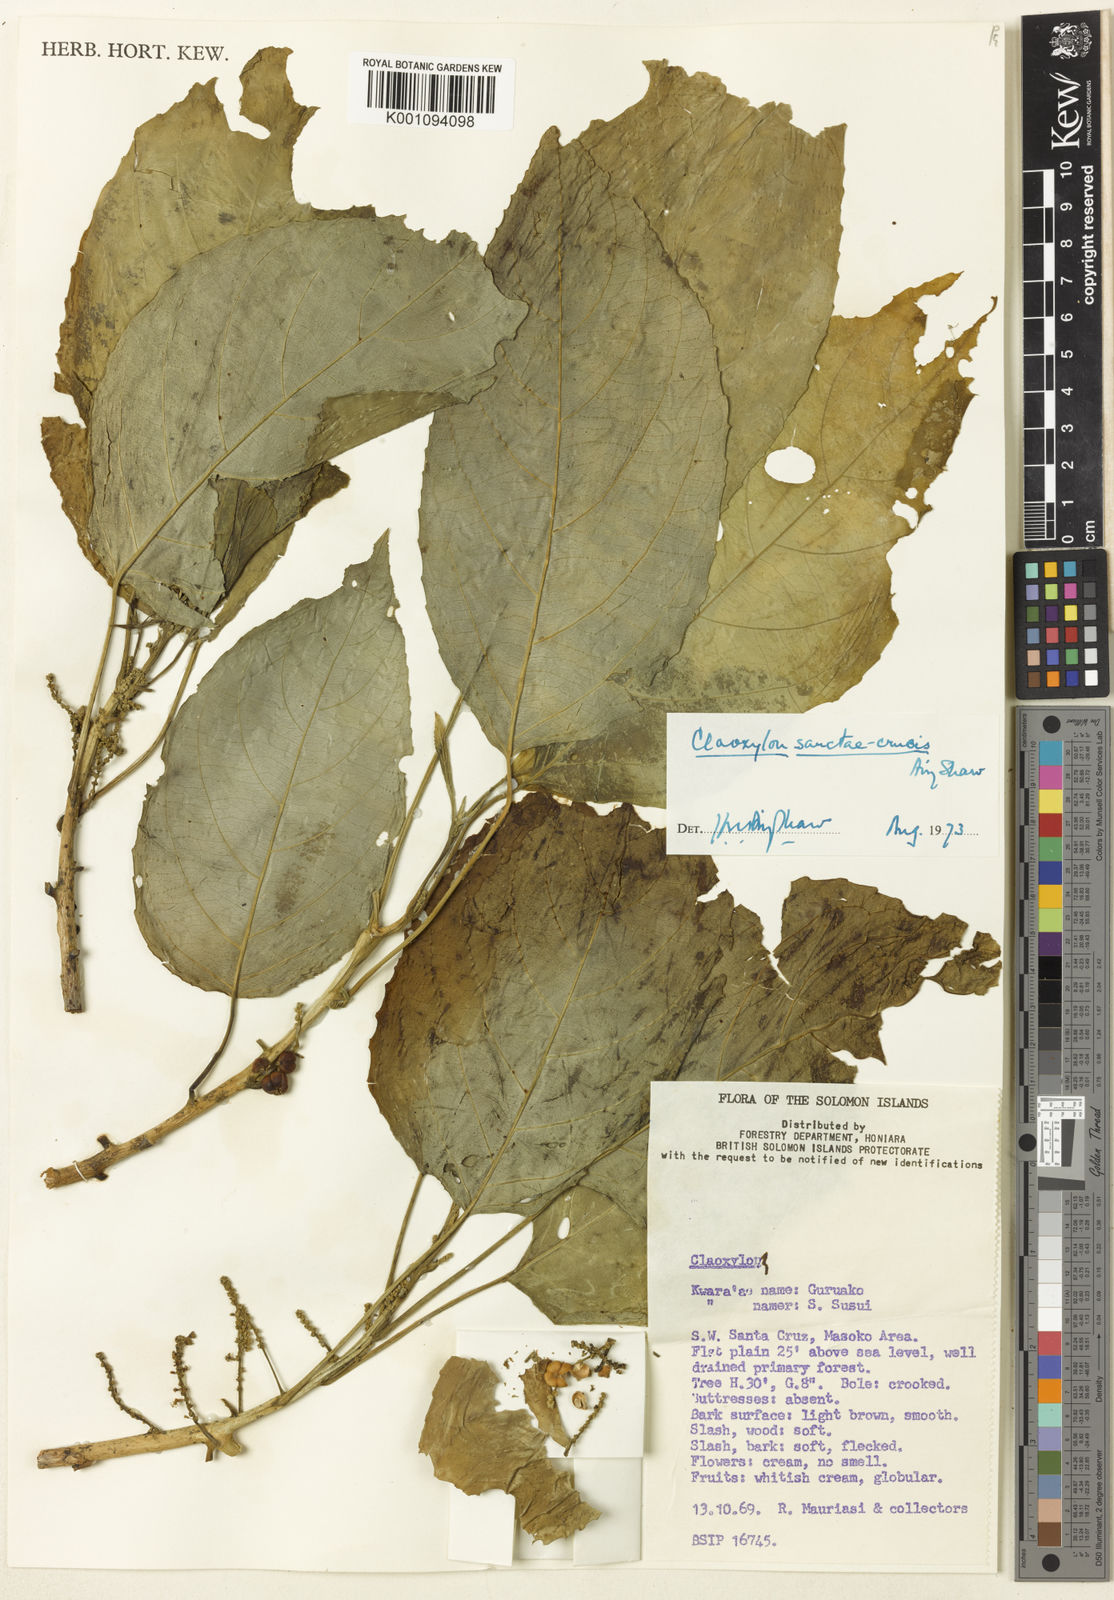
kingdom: Plantae
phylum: Tracheophyta
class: Magnoliopsida
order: Malpighiales
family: Euphorbiaceae
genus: Claoxylon
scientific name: Claoxylon sanctae-crucis
